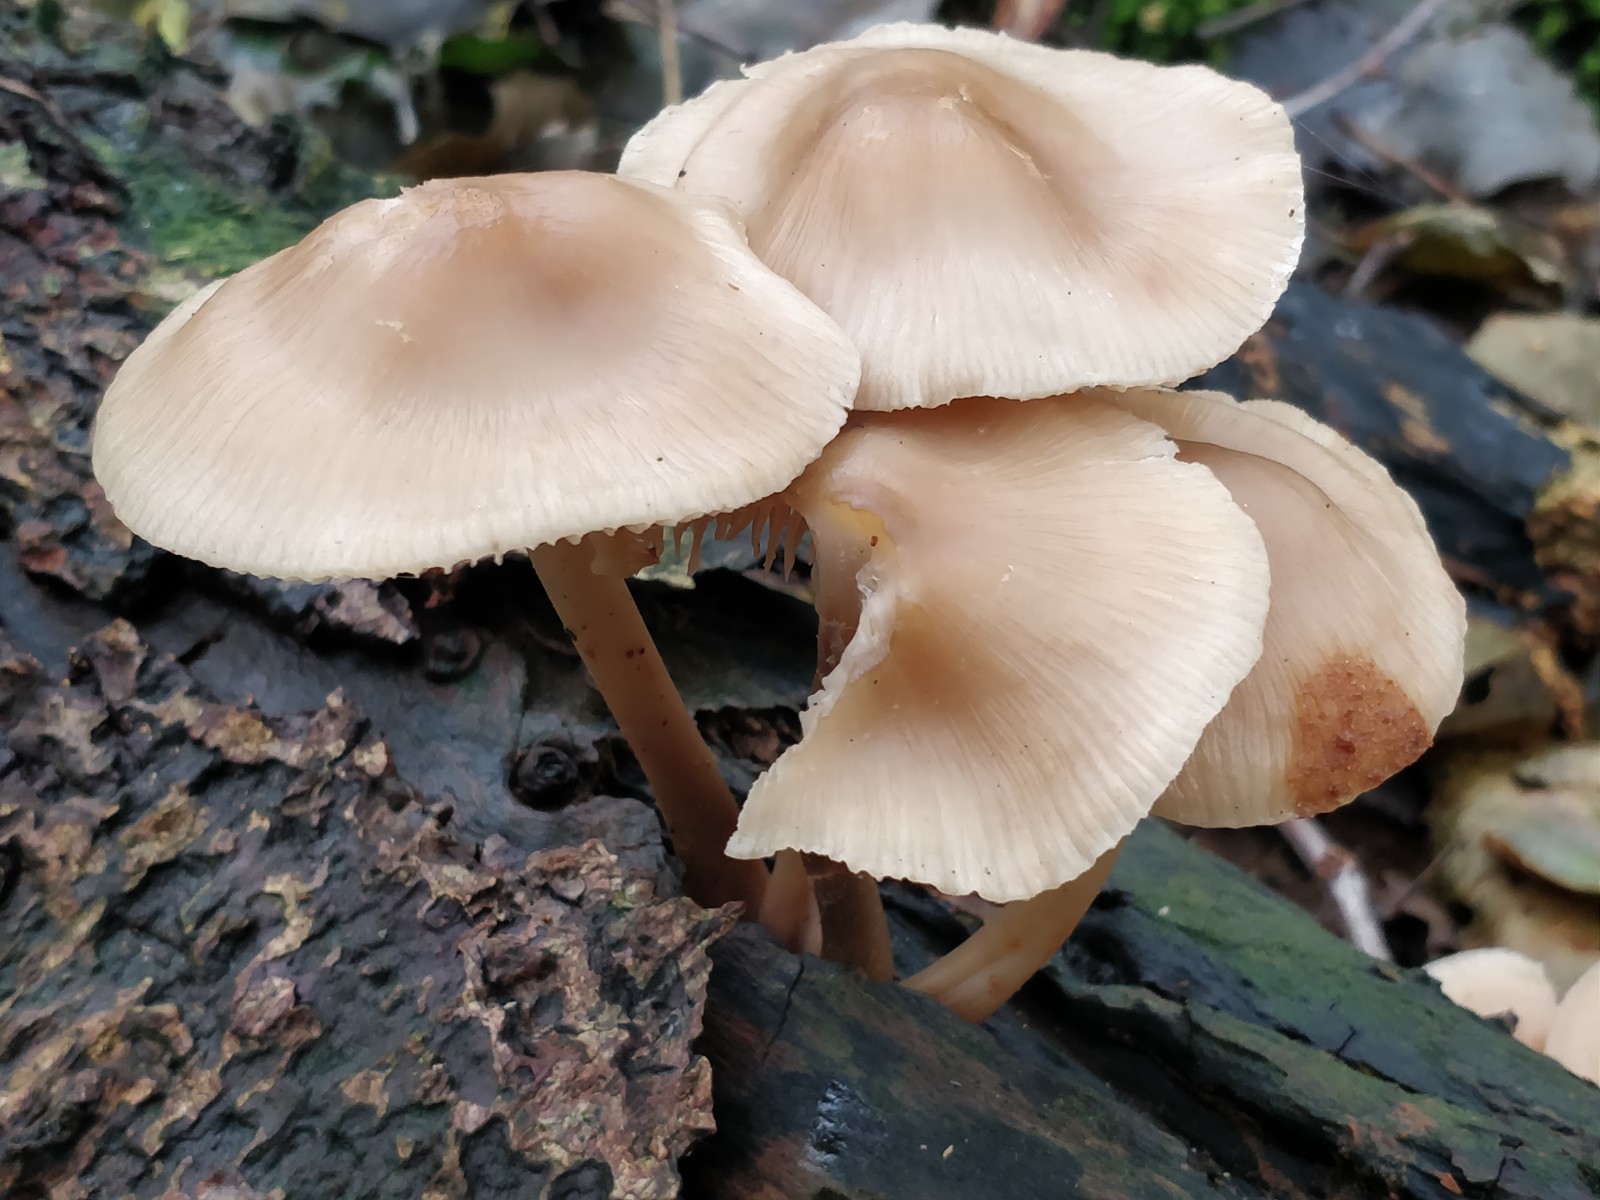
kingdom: Fungi
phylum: Basidiomycota
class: Agaricomycetes
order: Agaricales
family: Mycenaceae
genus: Mycena
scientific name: Mycena galericulata
